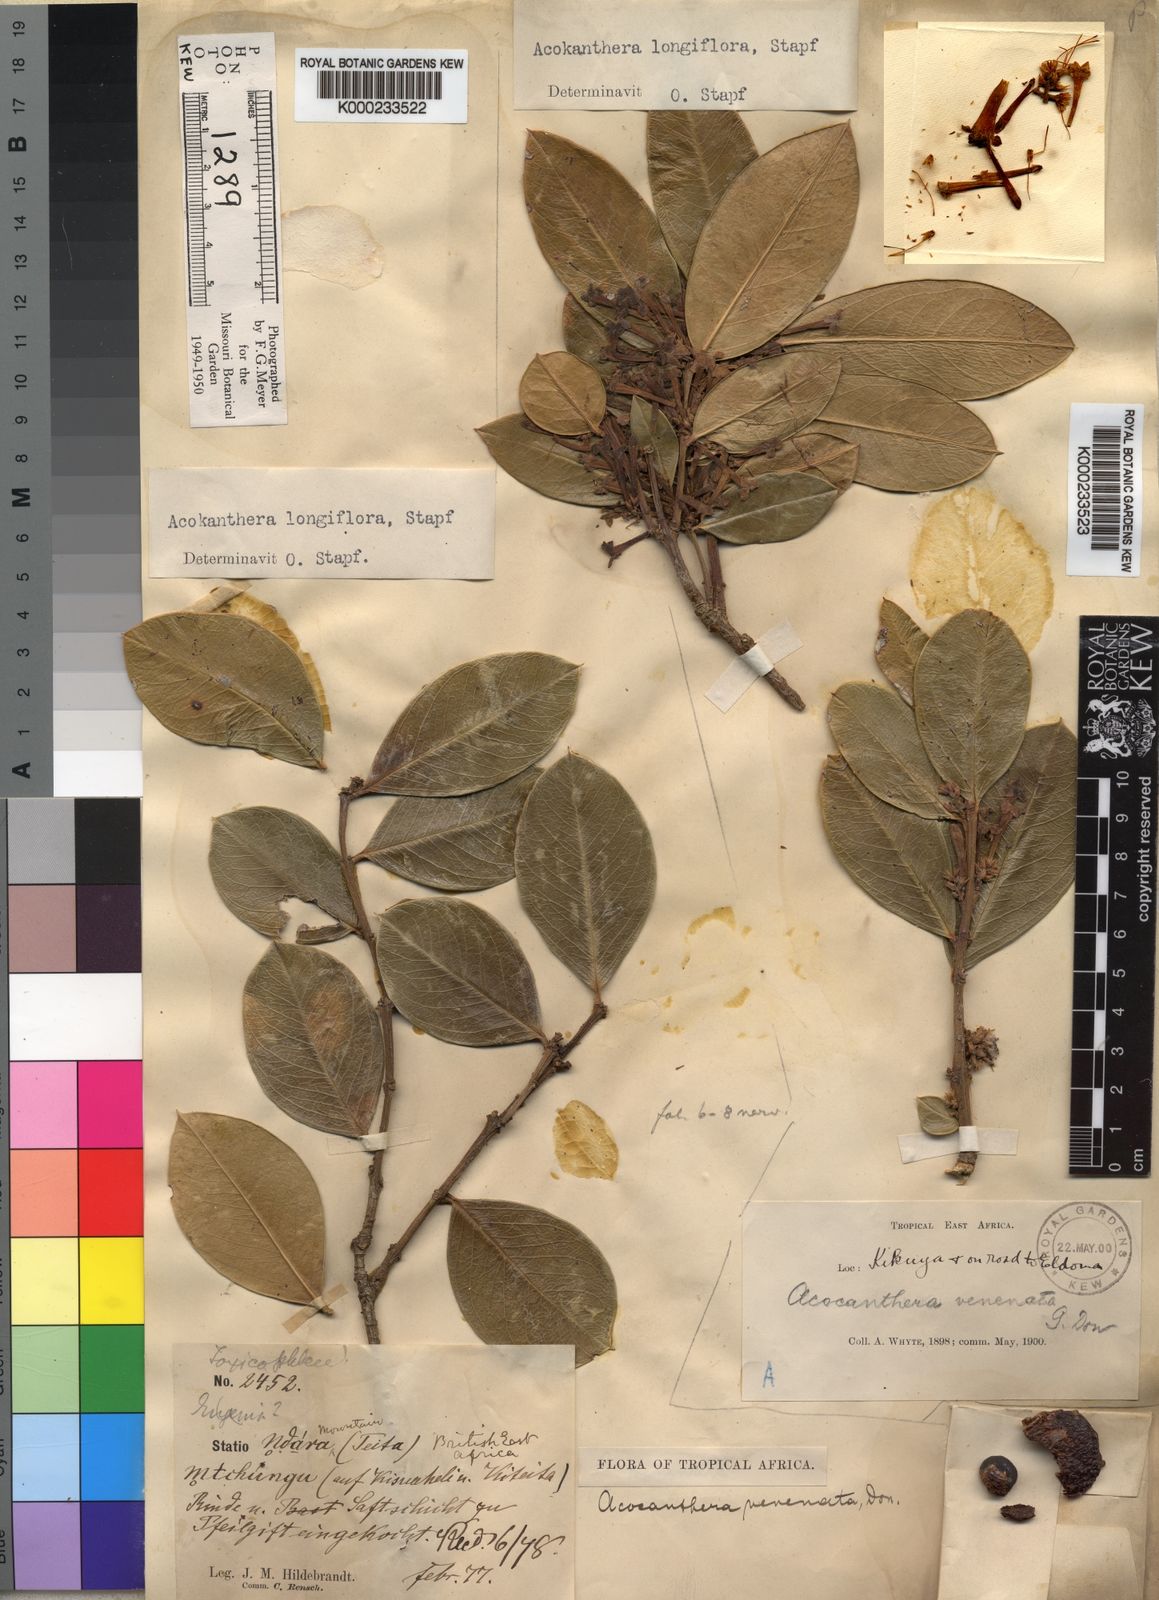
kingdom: Plantae
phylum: Tracheophyta
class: Magnoliopsida
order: Gentianales
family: Apocynaceae
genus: Acokanthera
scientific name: Acokanthera oppositifolia
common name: Bushman's-poison
